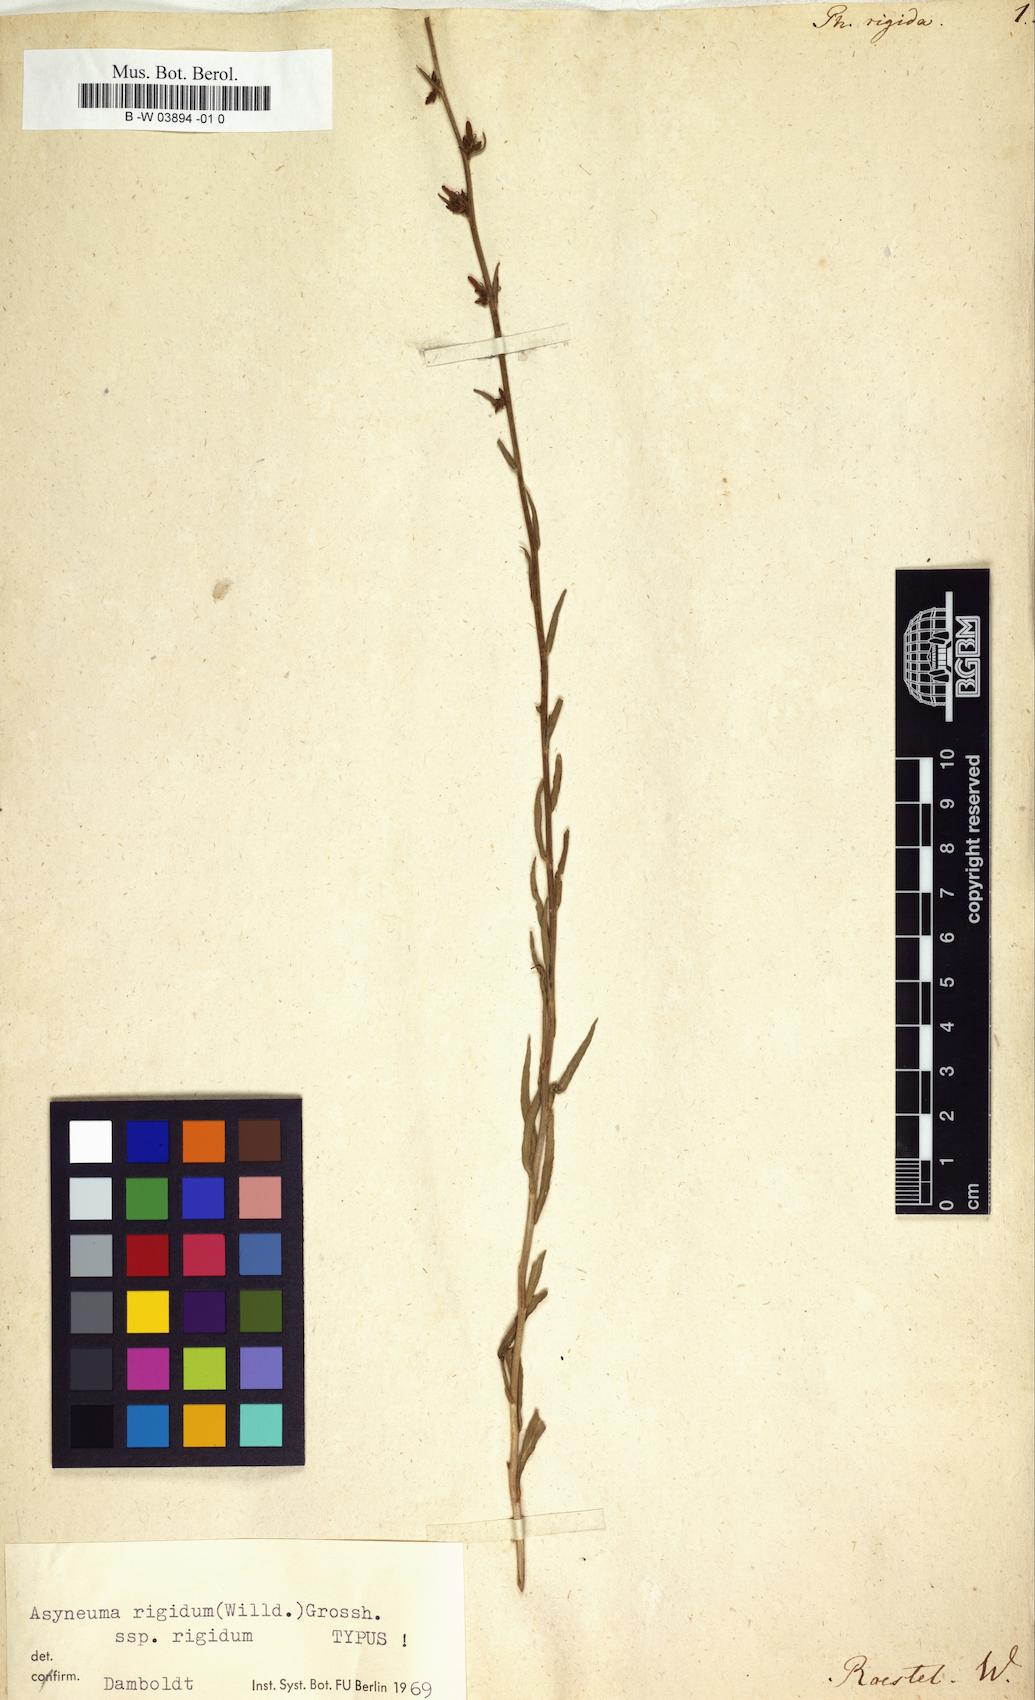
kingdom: Plantae
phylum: Tracheophyta
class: Magnoliopsida
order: Asterales
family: Campanulaceae
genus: Asyneuma
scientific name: Asyneuma rigidum
